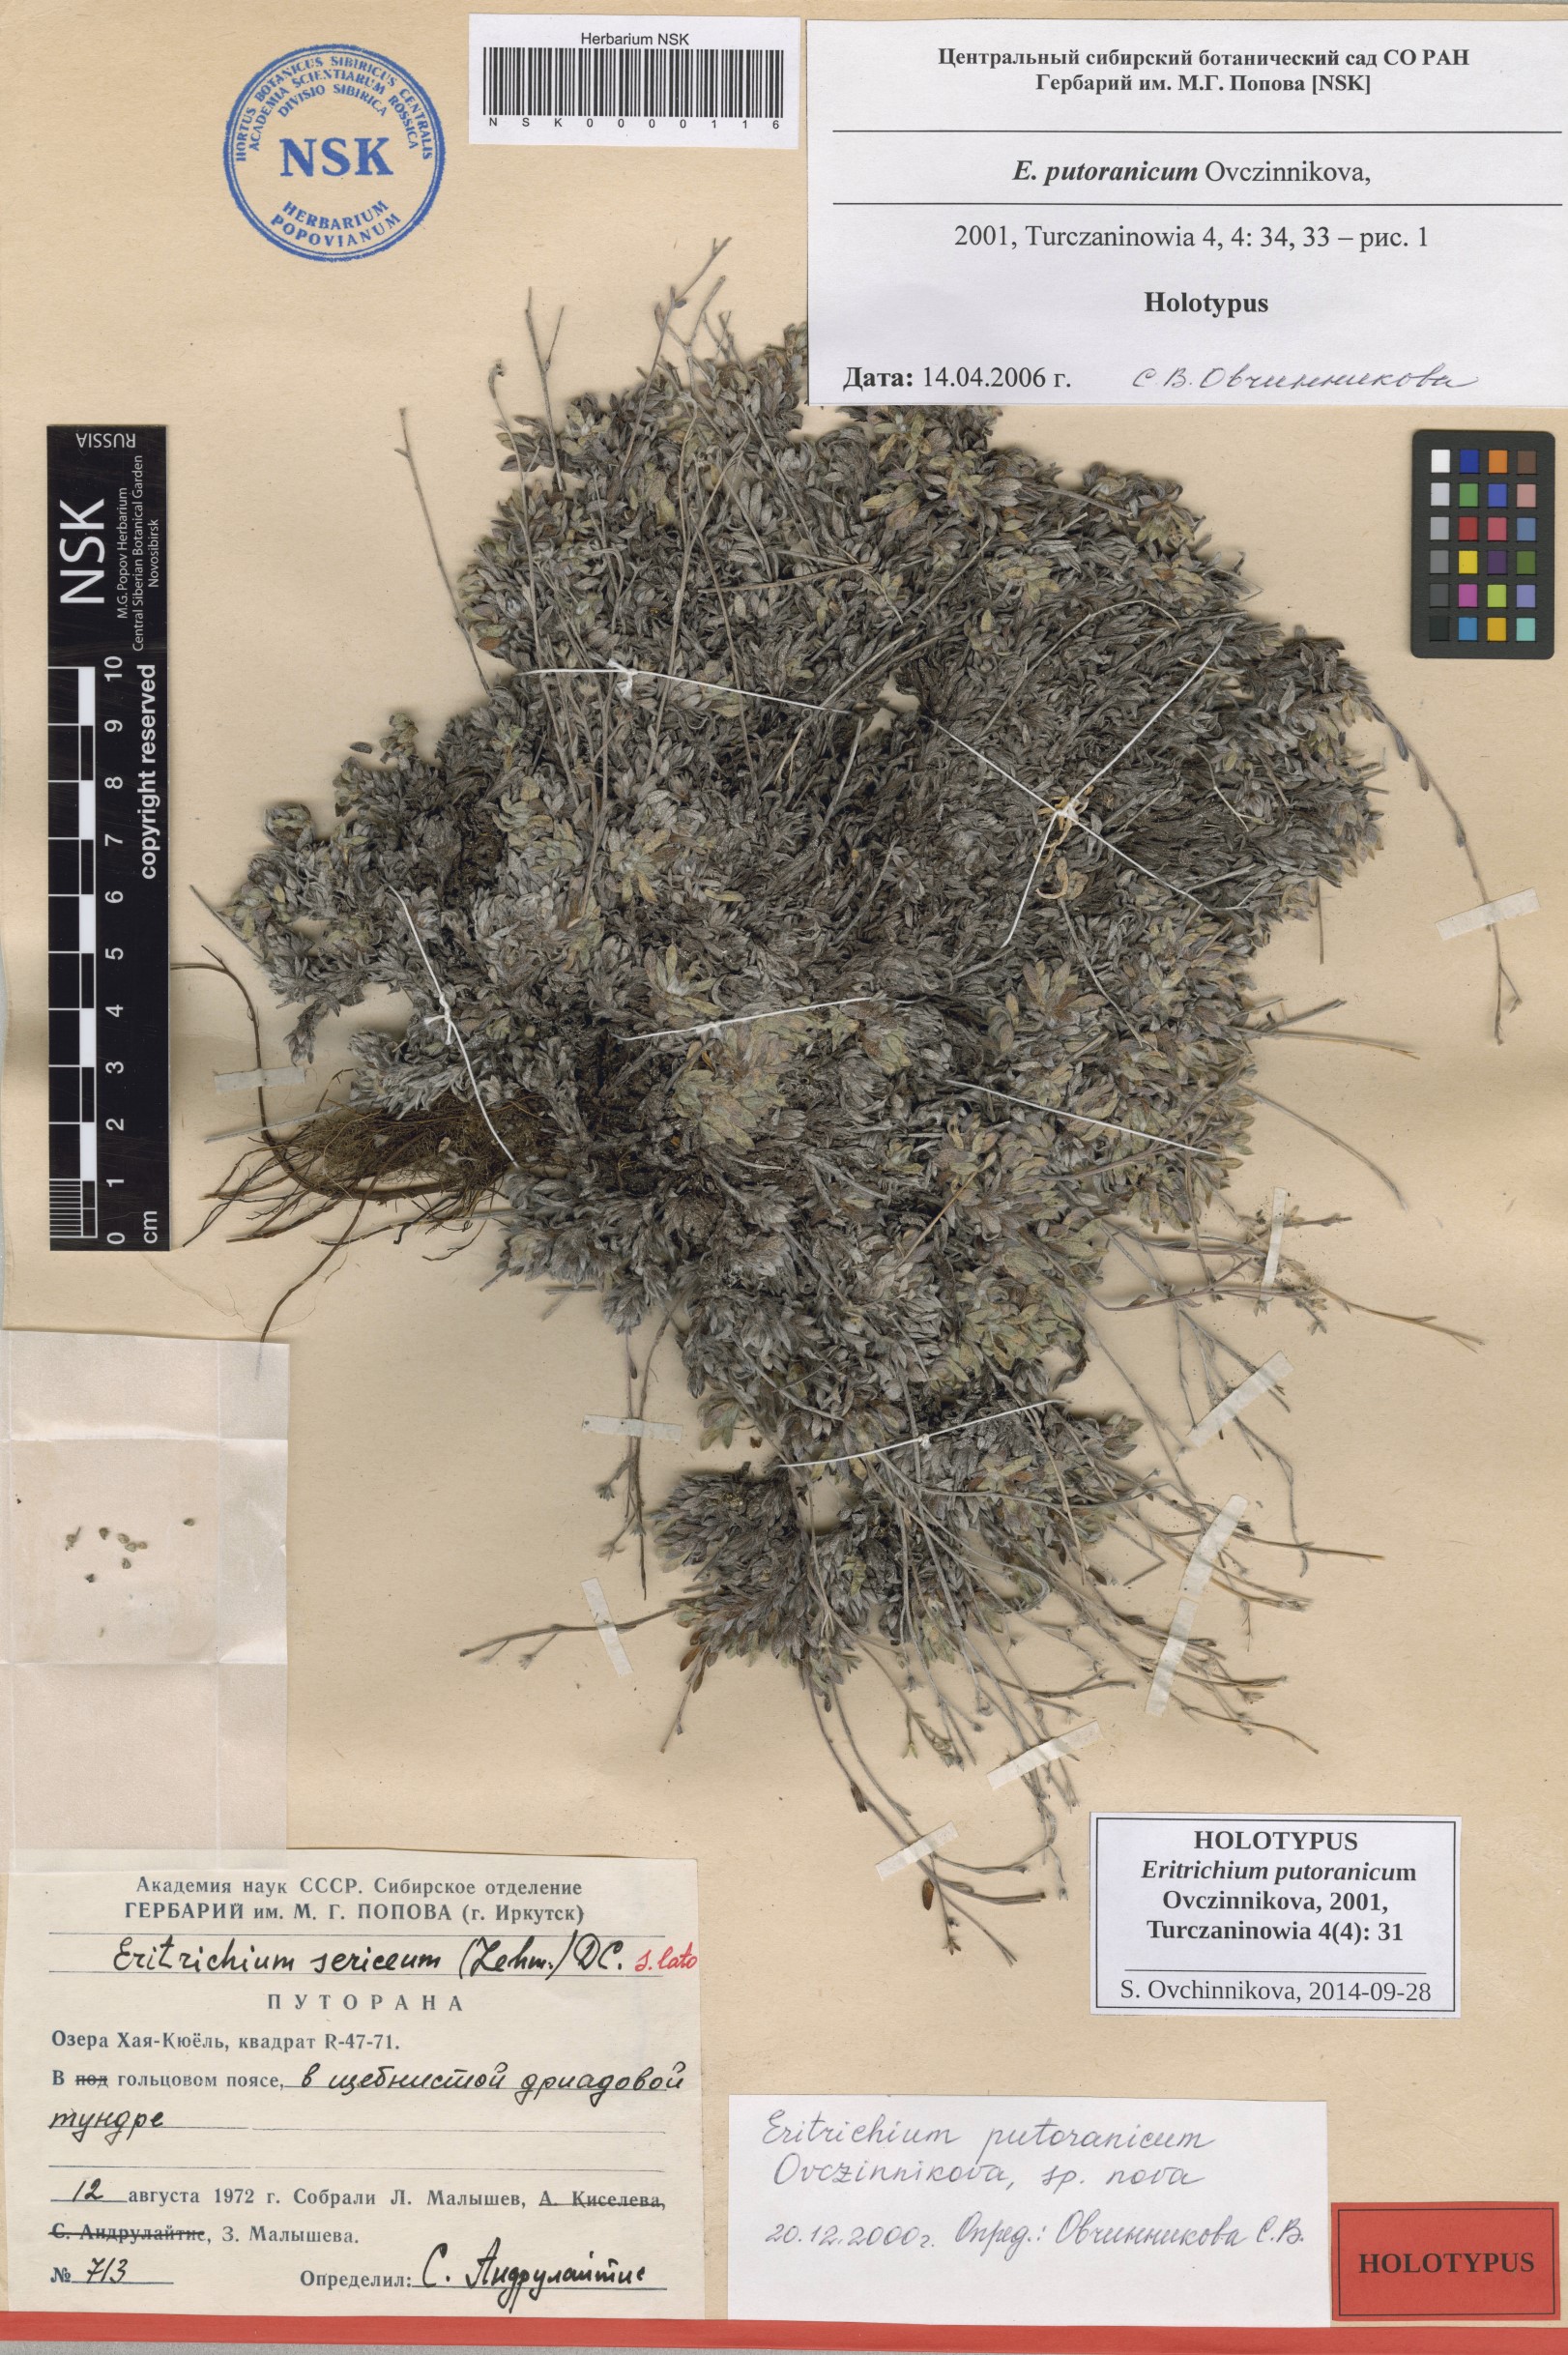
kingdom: Plantae
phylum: Tracheophyta
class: Magnoliopsida
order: Boraginales
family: Boraginaceae
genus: Eritrichium
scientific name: Eritrichium putoranicum
